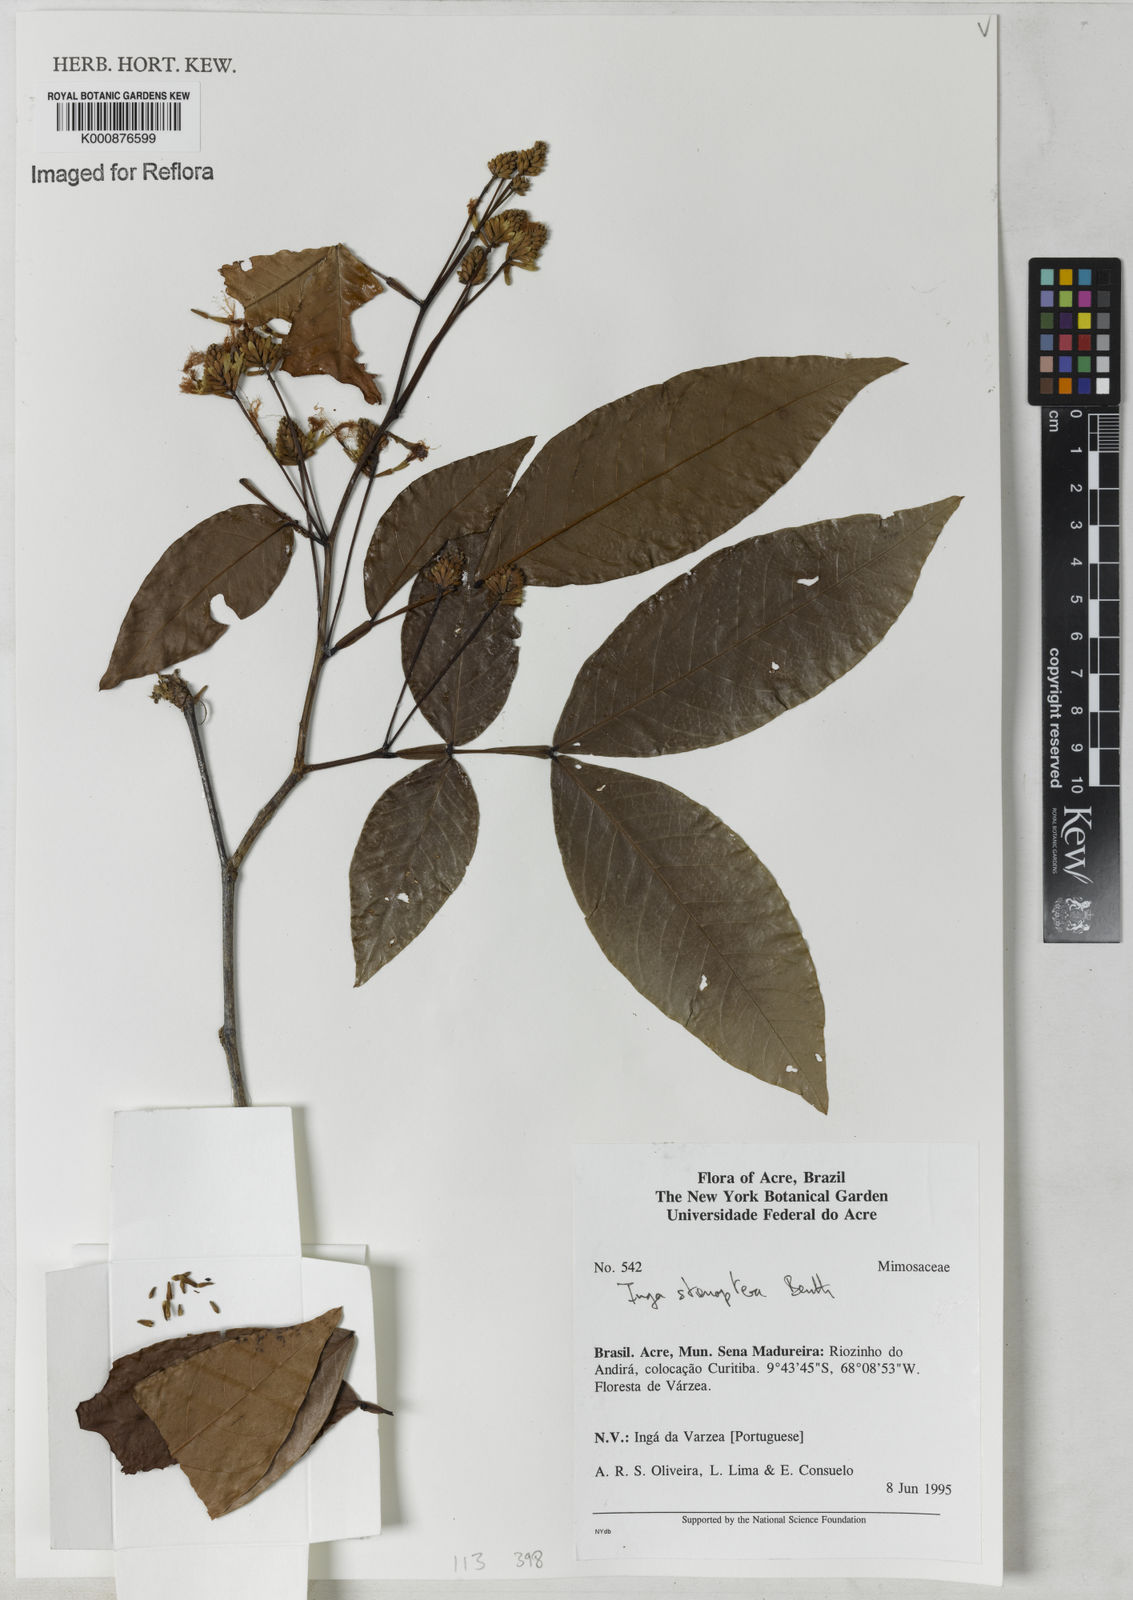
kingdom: Plantae
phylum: Tracheophyta
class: Magnoliopsida
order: Fabales
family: Fabaceae
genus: Inga
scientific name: Inga stenoptera
